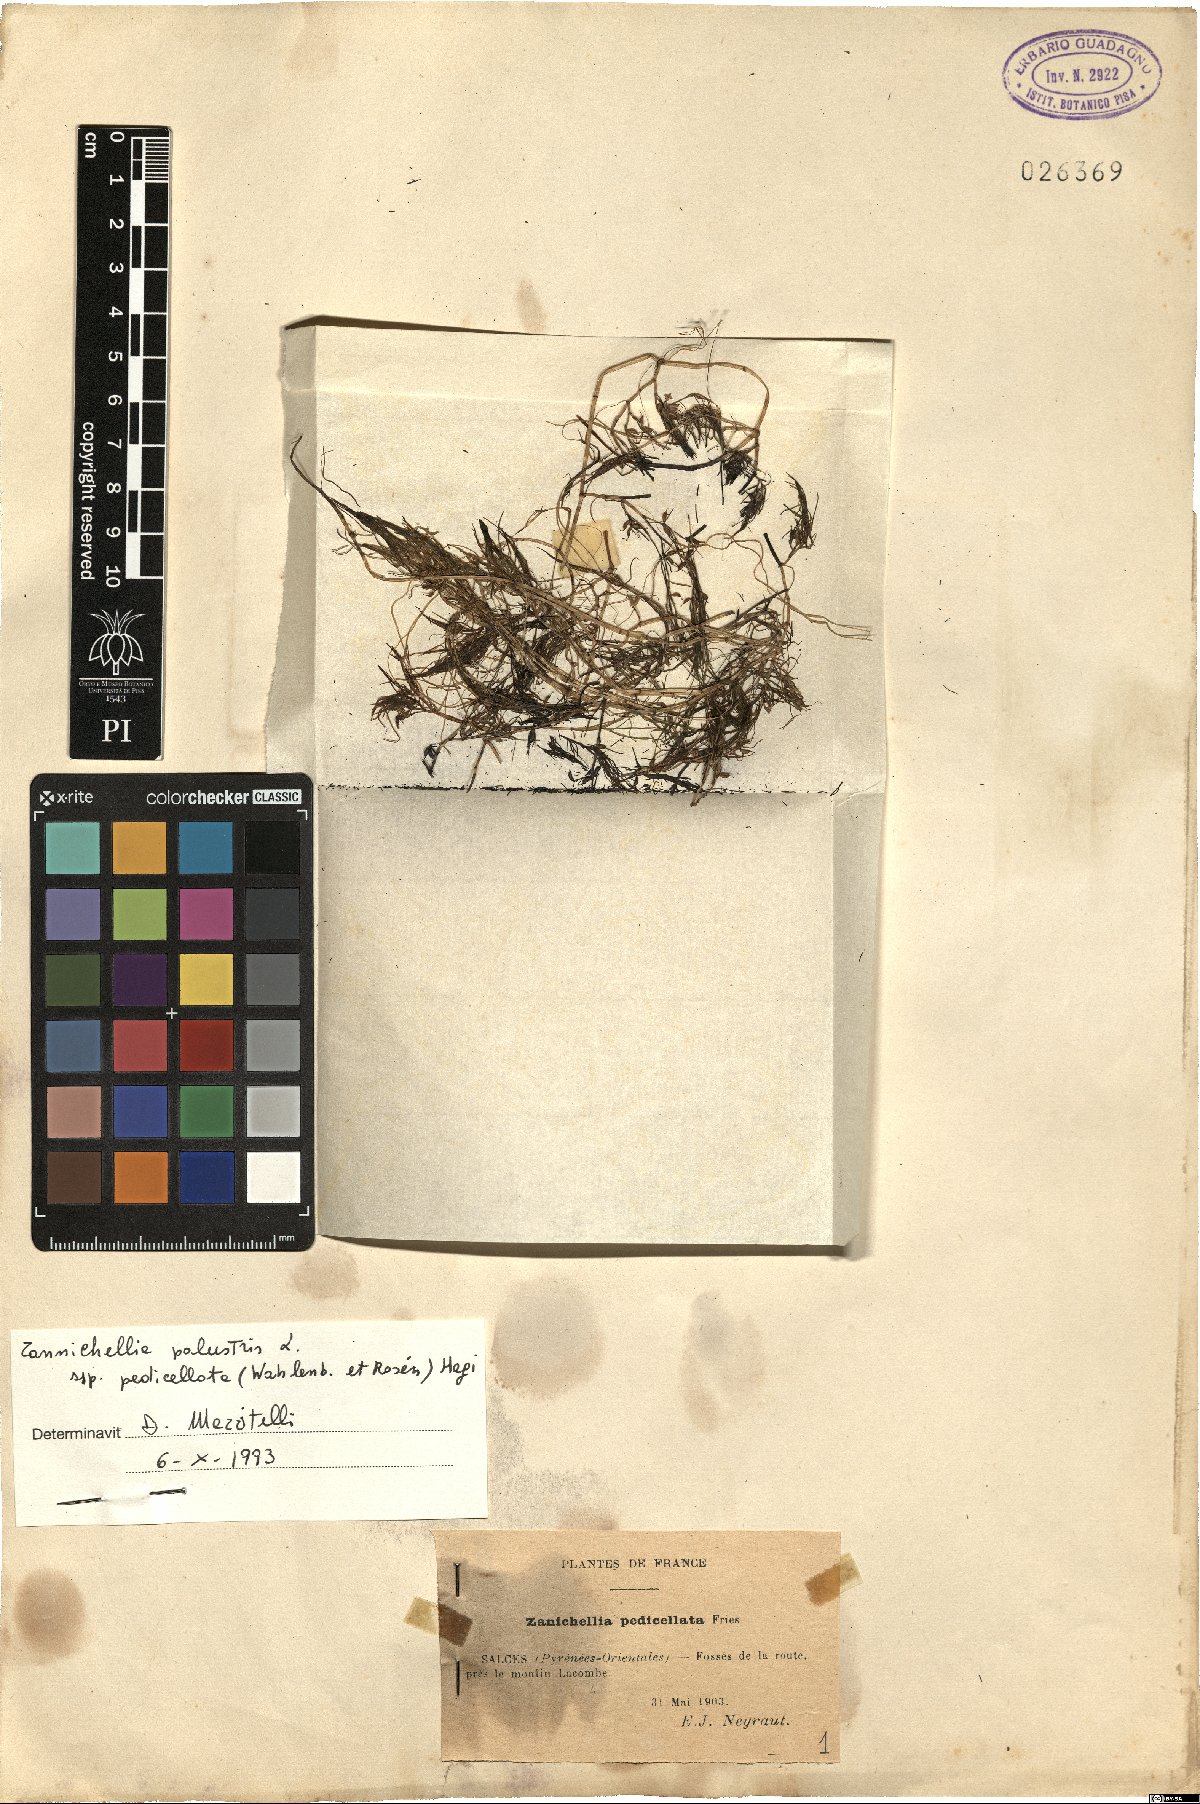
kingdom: Plantae
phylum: Tracheophyta
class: Liliopsida
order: Alismatales
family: Potamogetonaceae
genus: Zannichellia
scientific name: Zannichellia palustris
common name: Horned pondweed
